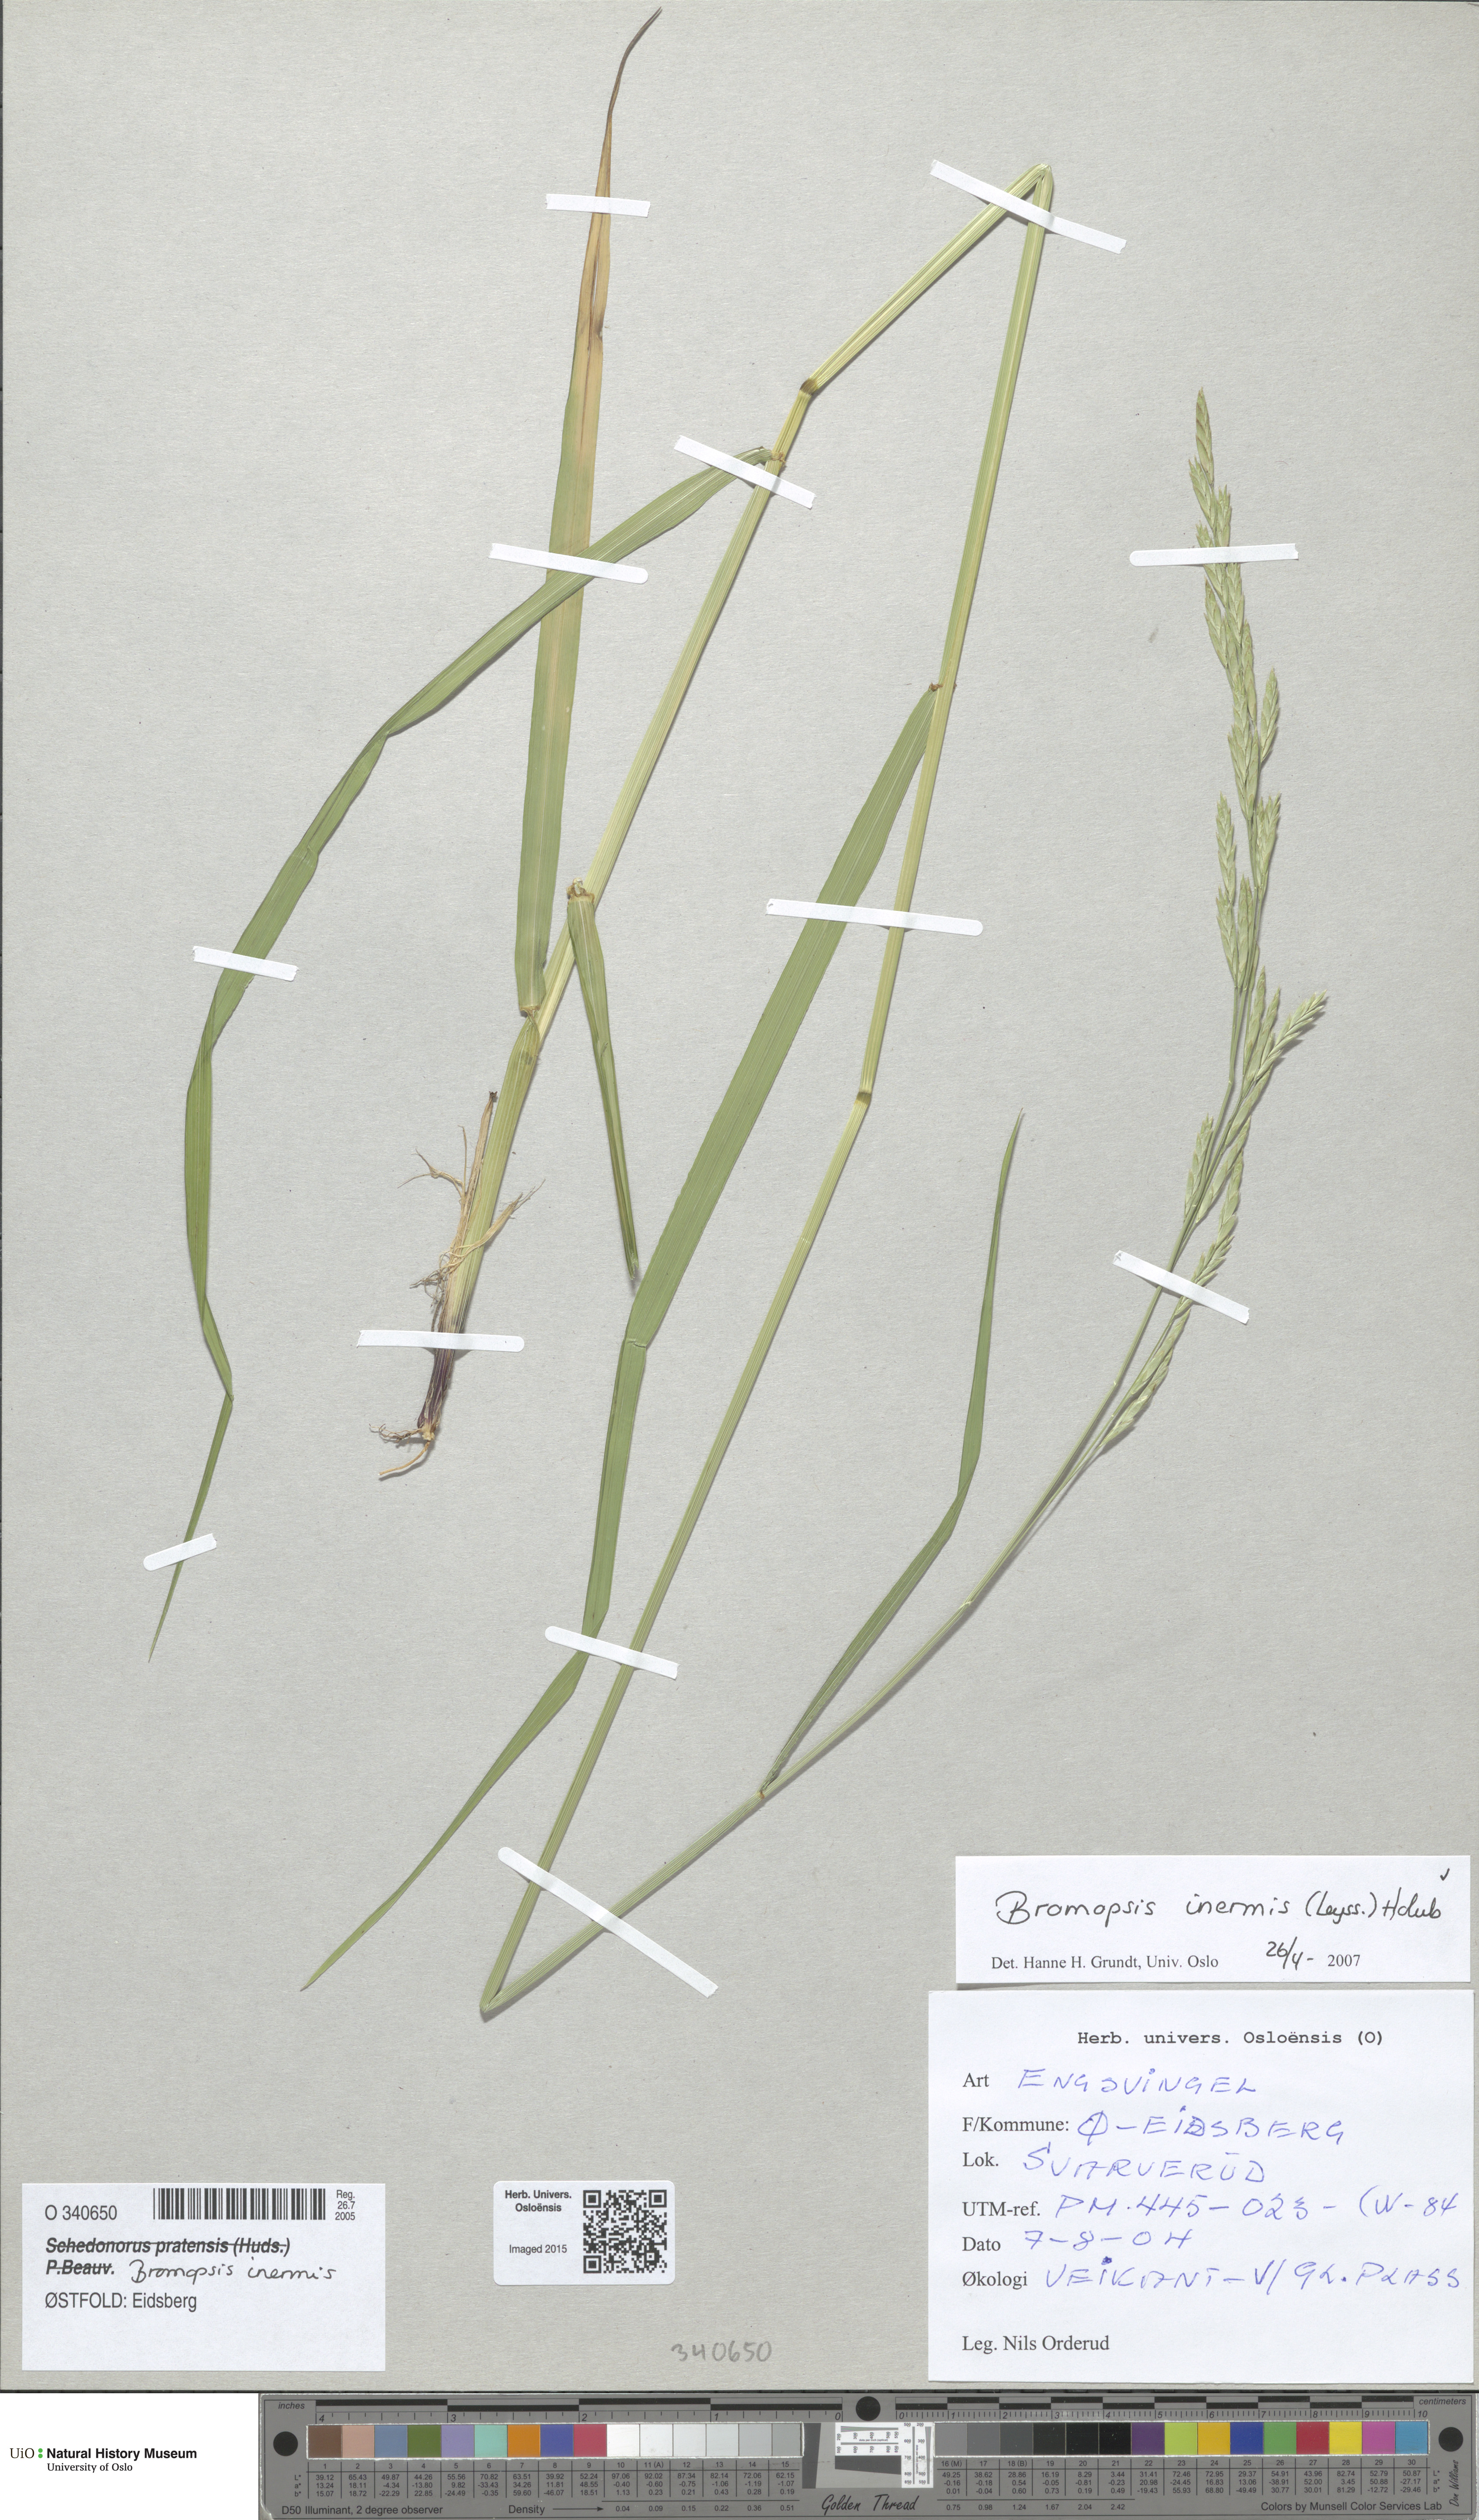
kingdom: Plantae
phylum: Tracheophyta
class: Liliopsida
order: Poales
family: Poaceae
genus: Bromus
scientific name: Bromus inermis
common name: Smooth brome
